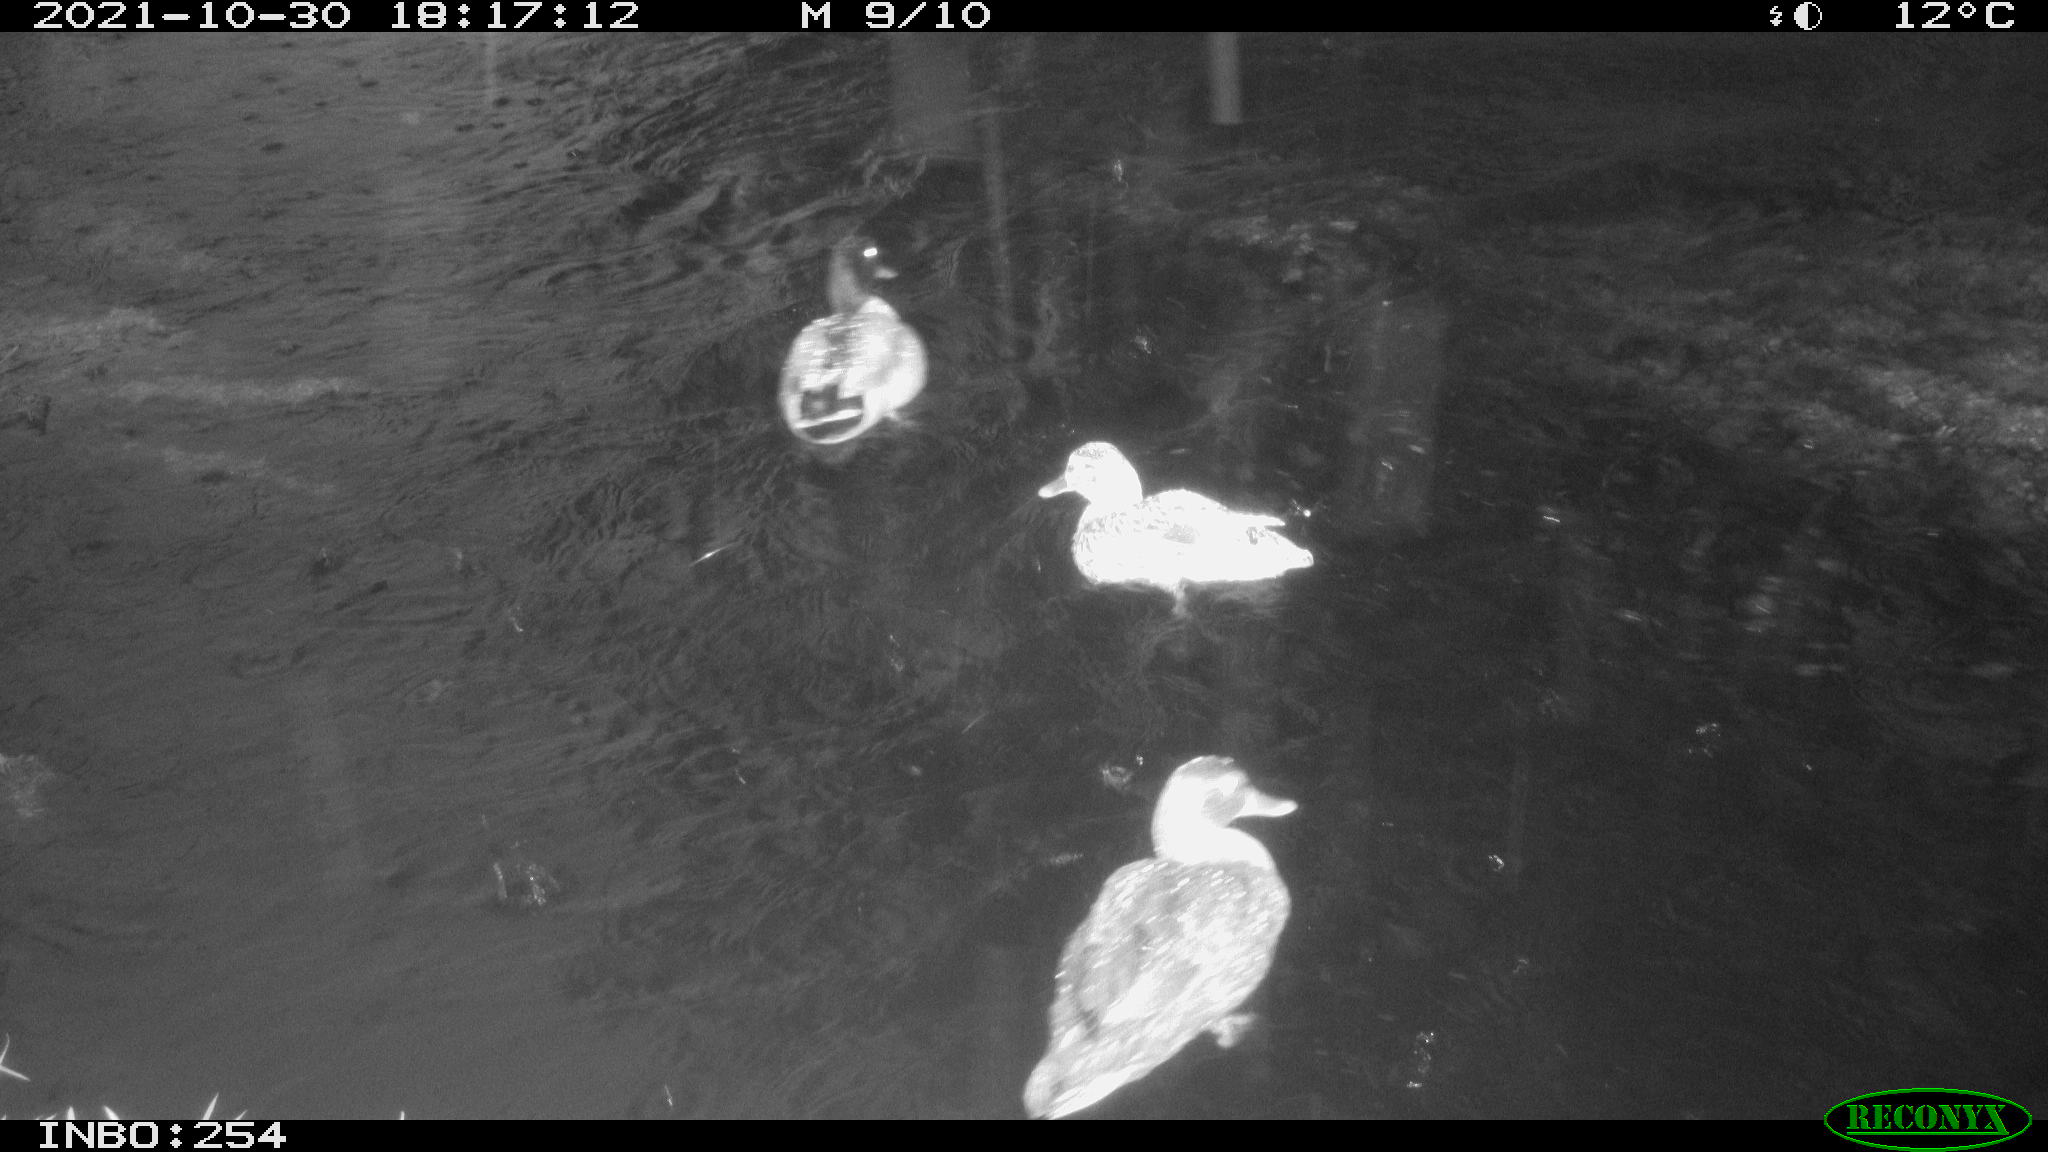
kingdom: Animalia
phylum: Chordata
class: Aves
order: Anseriformes
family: Anatidae
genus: Anas
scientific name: Anas platyrhynchos
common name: Mallard
